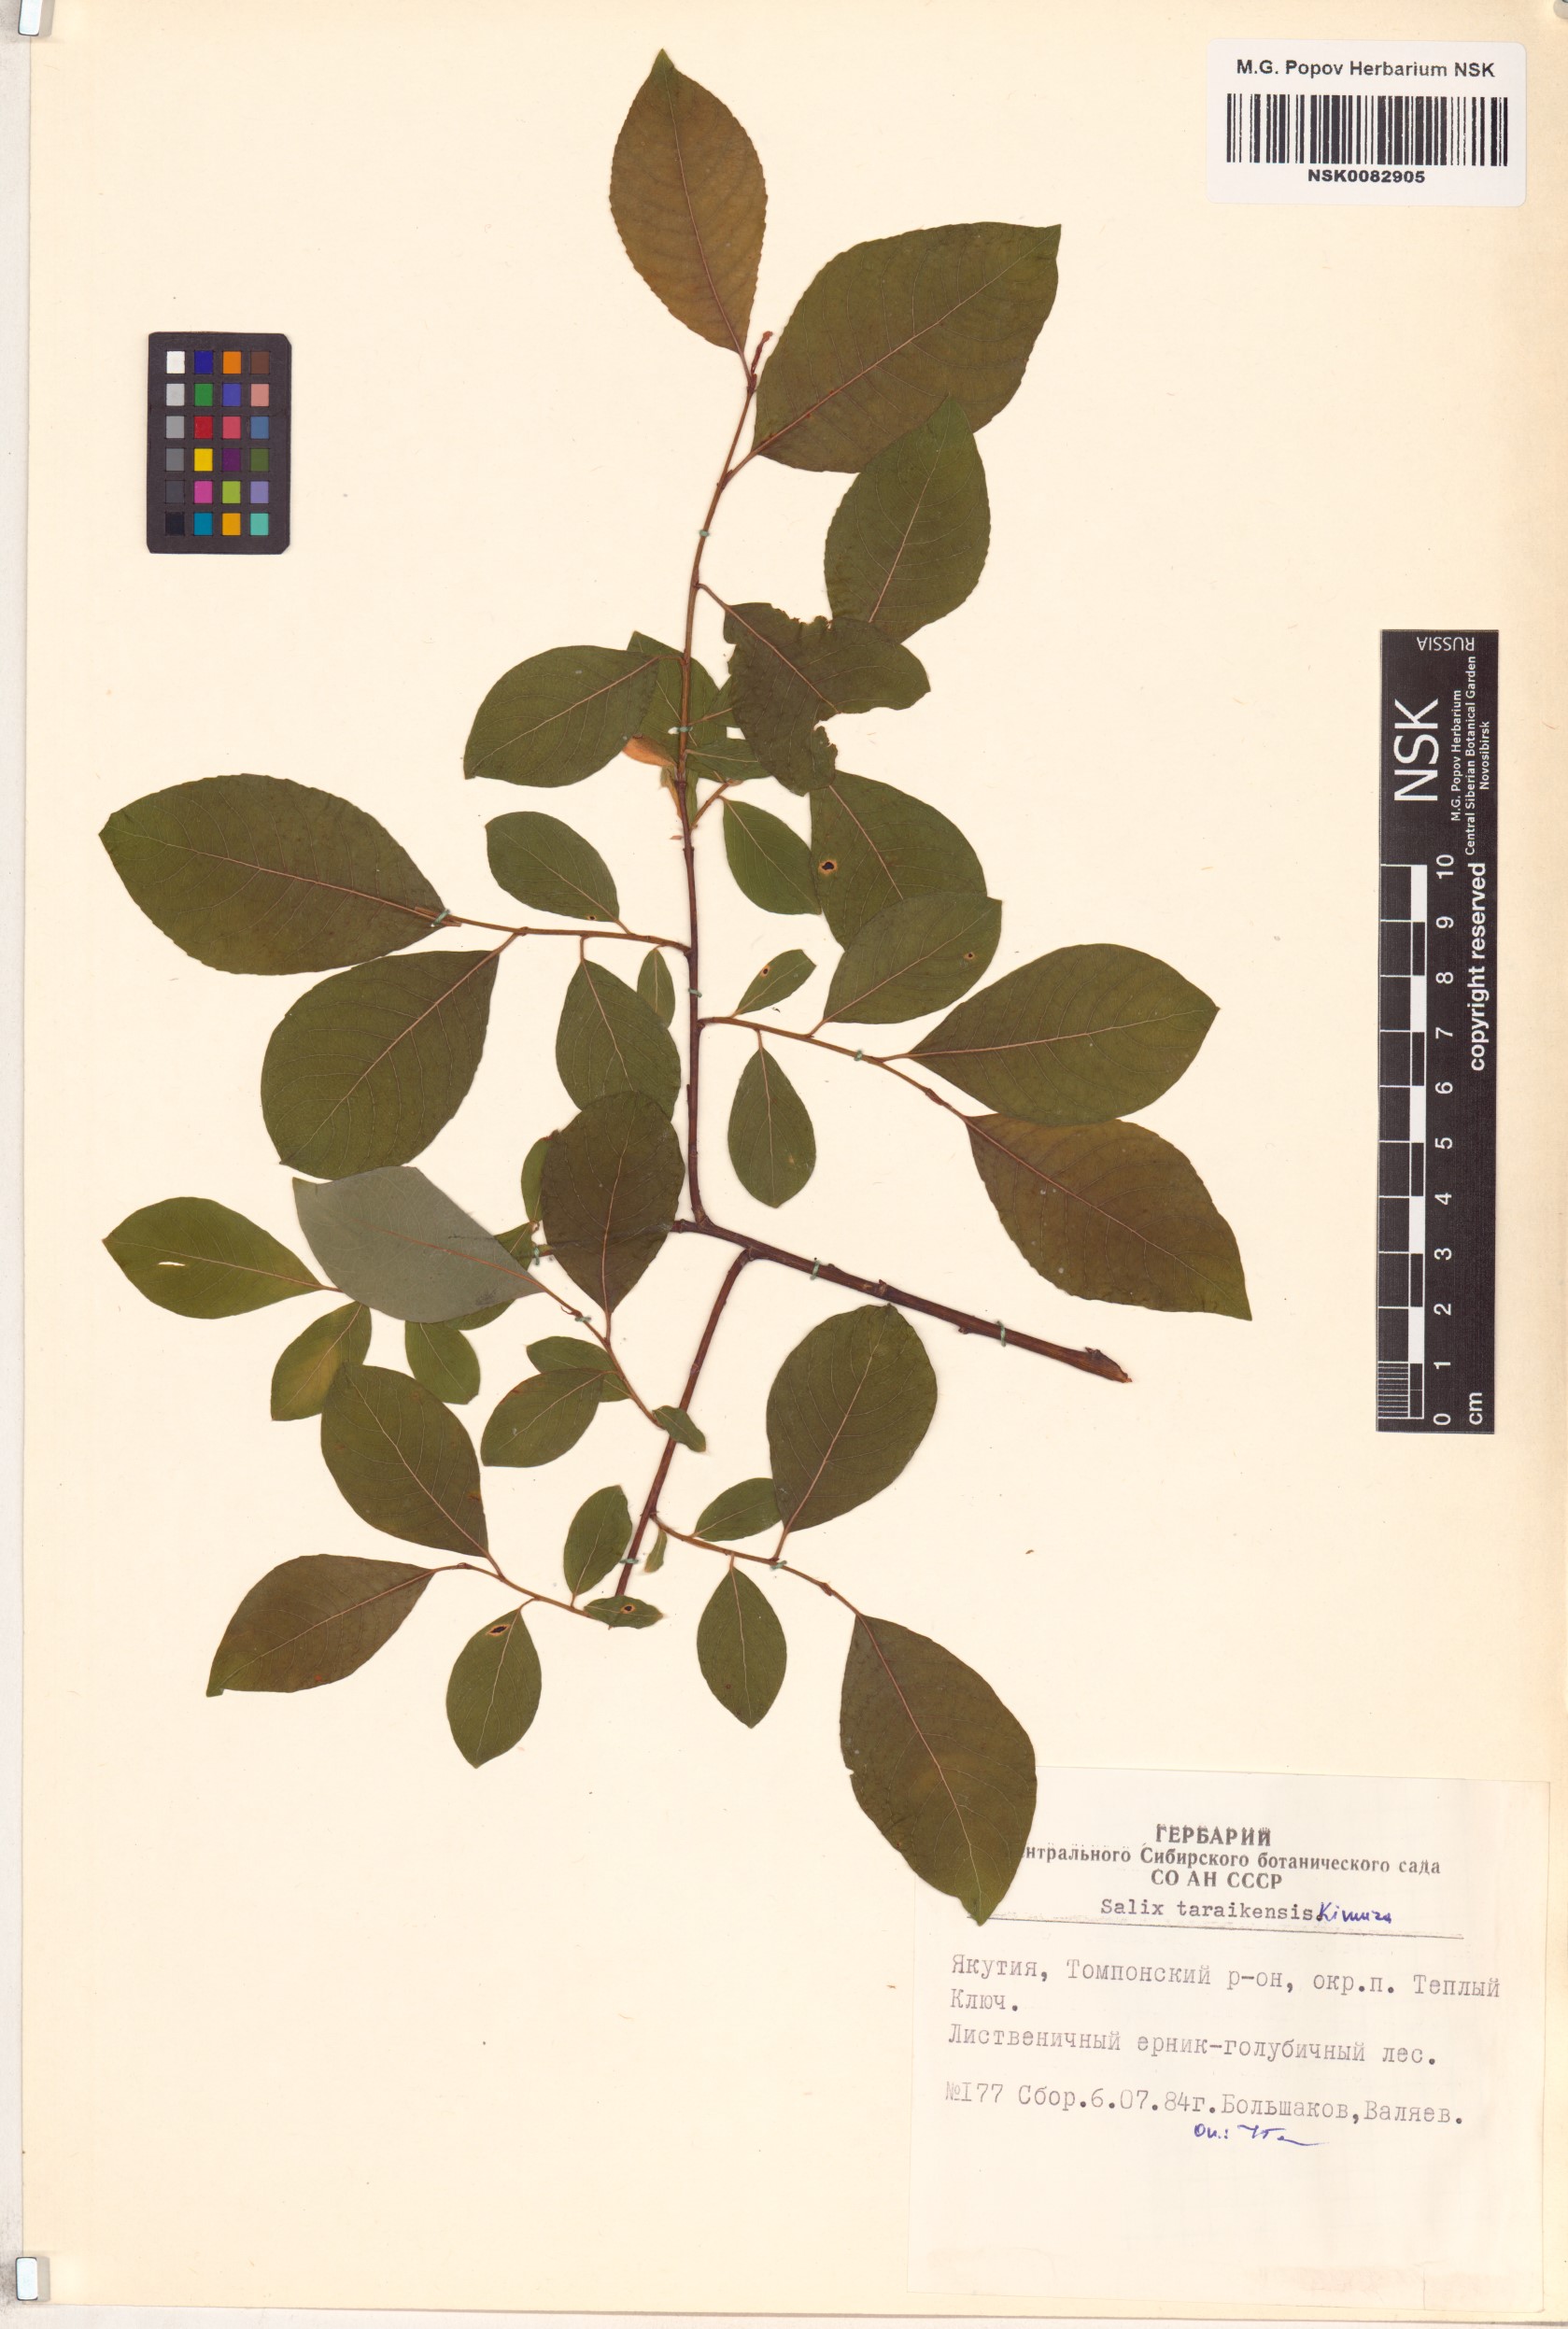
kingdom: Plantae
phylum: Tracheophyta
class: Magnoliopsida
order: Malpighiales
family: Salicaceae
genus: Salix
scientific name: Salix taraikensis
